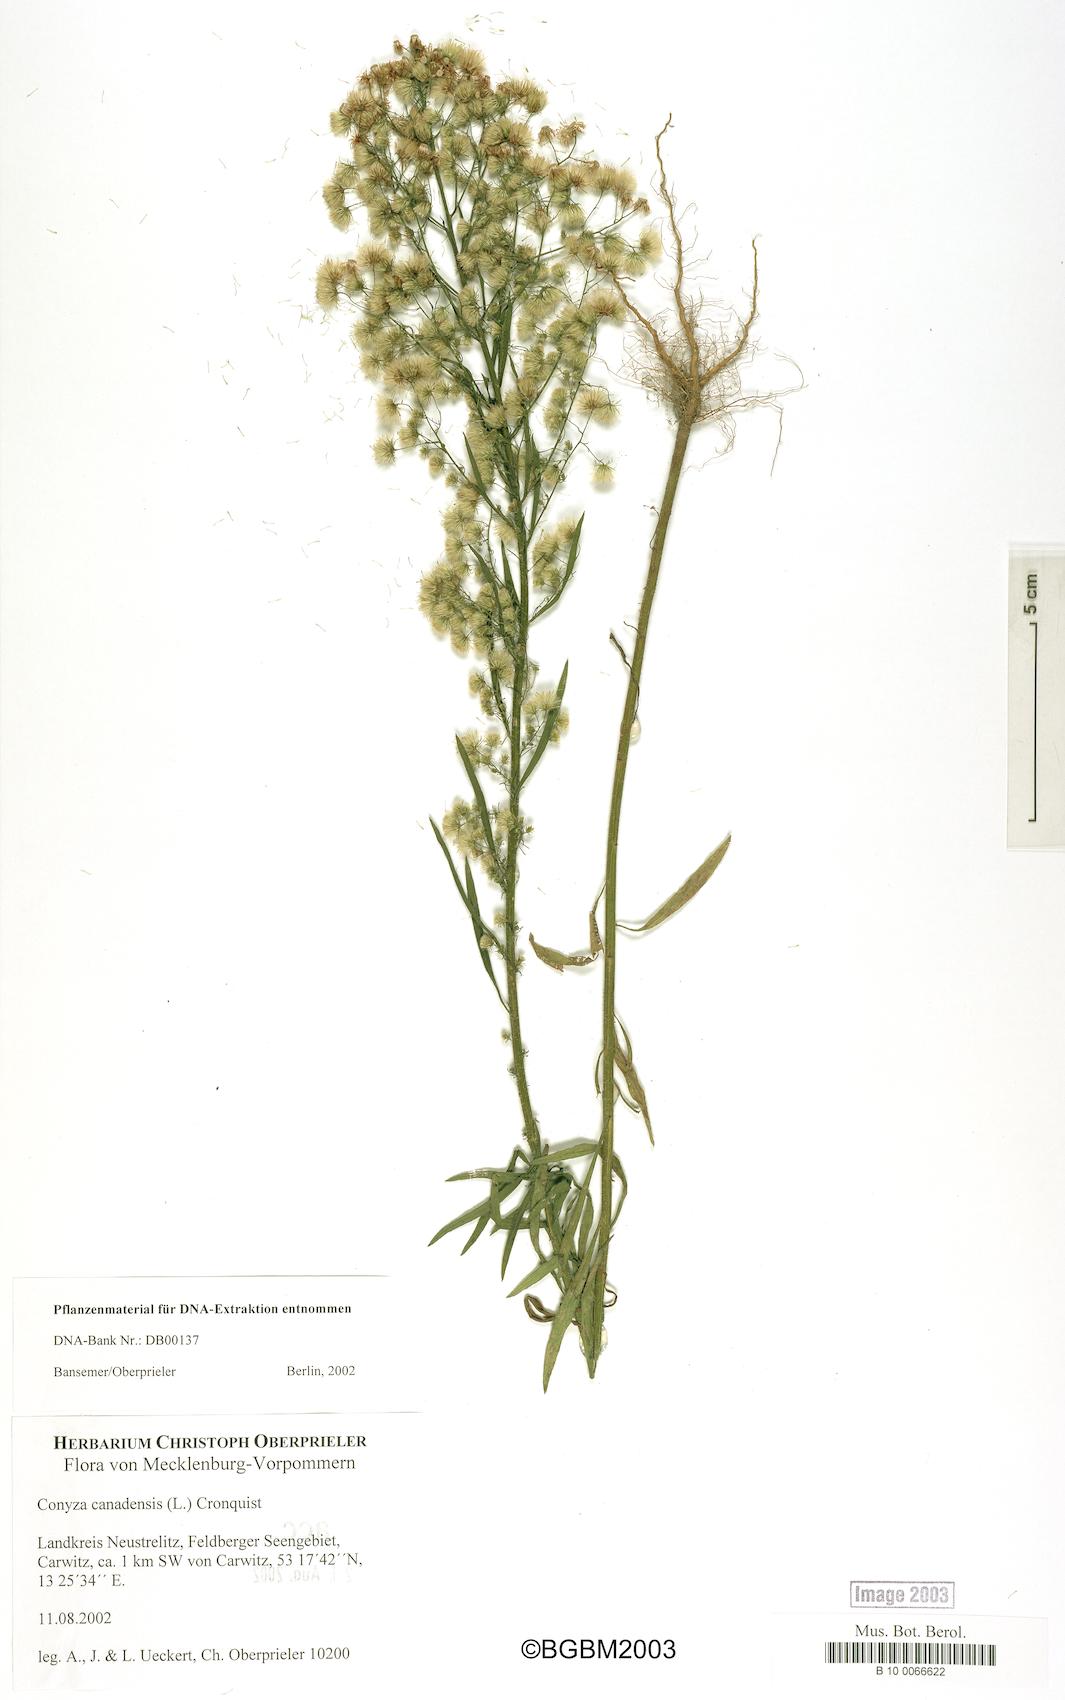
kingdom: Plantae
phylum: Tracheophyta
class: Magnoliopsida
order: Asterales
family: Asteraceae
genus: Erigeron
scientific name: Erigeron canadensis
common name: Canadian fleabane
